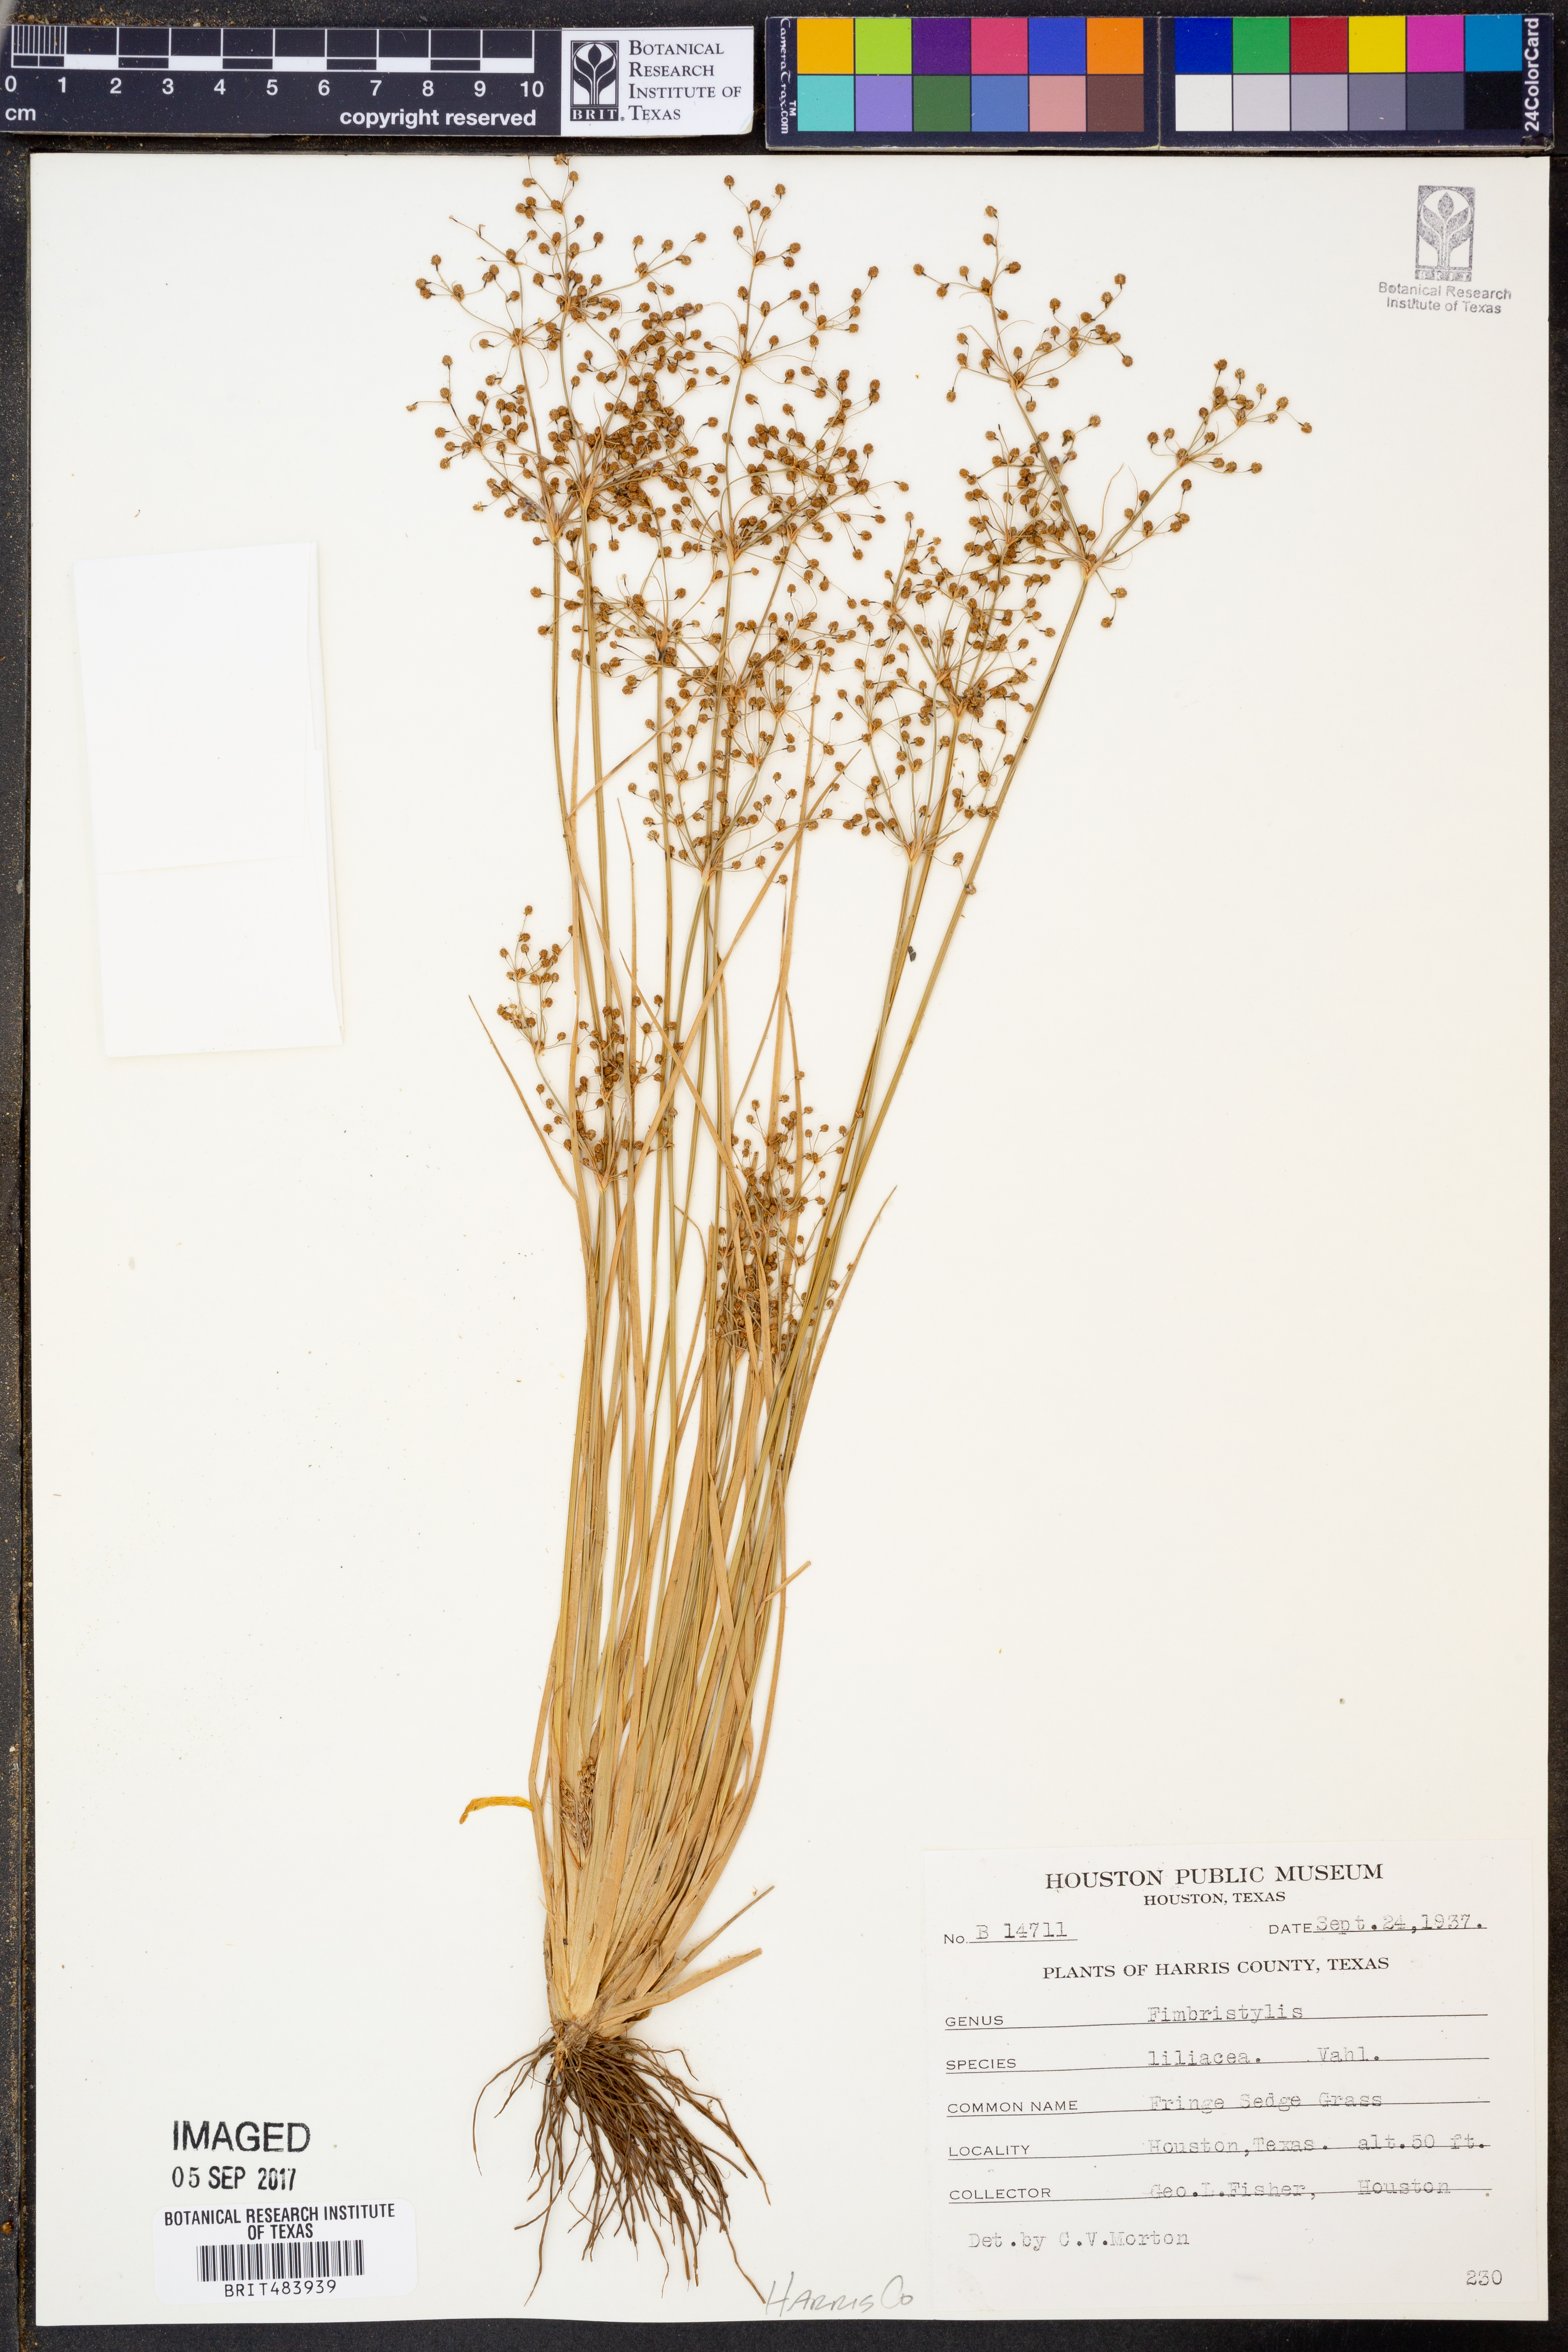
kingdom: Plantae
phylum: Tracheophyta
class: Liliopsida
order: Poales
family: Cyperaceae
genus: Fimbristylis
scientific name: Fimbristylis quinquangularis
